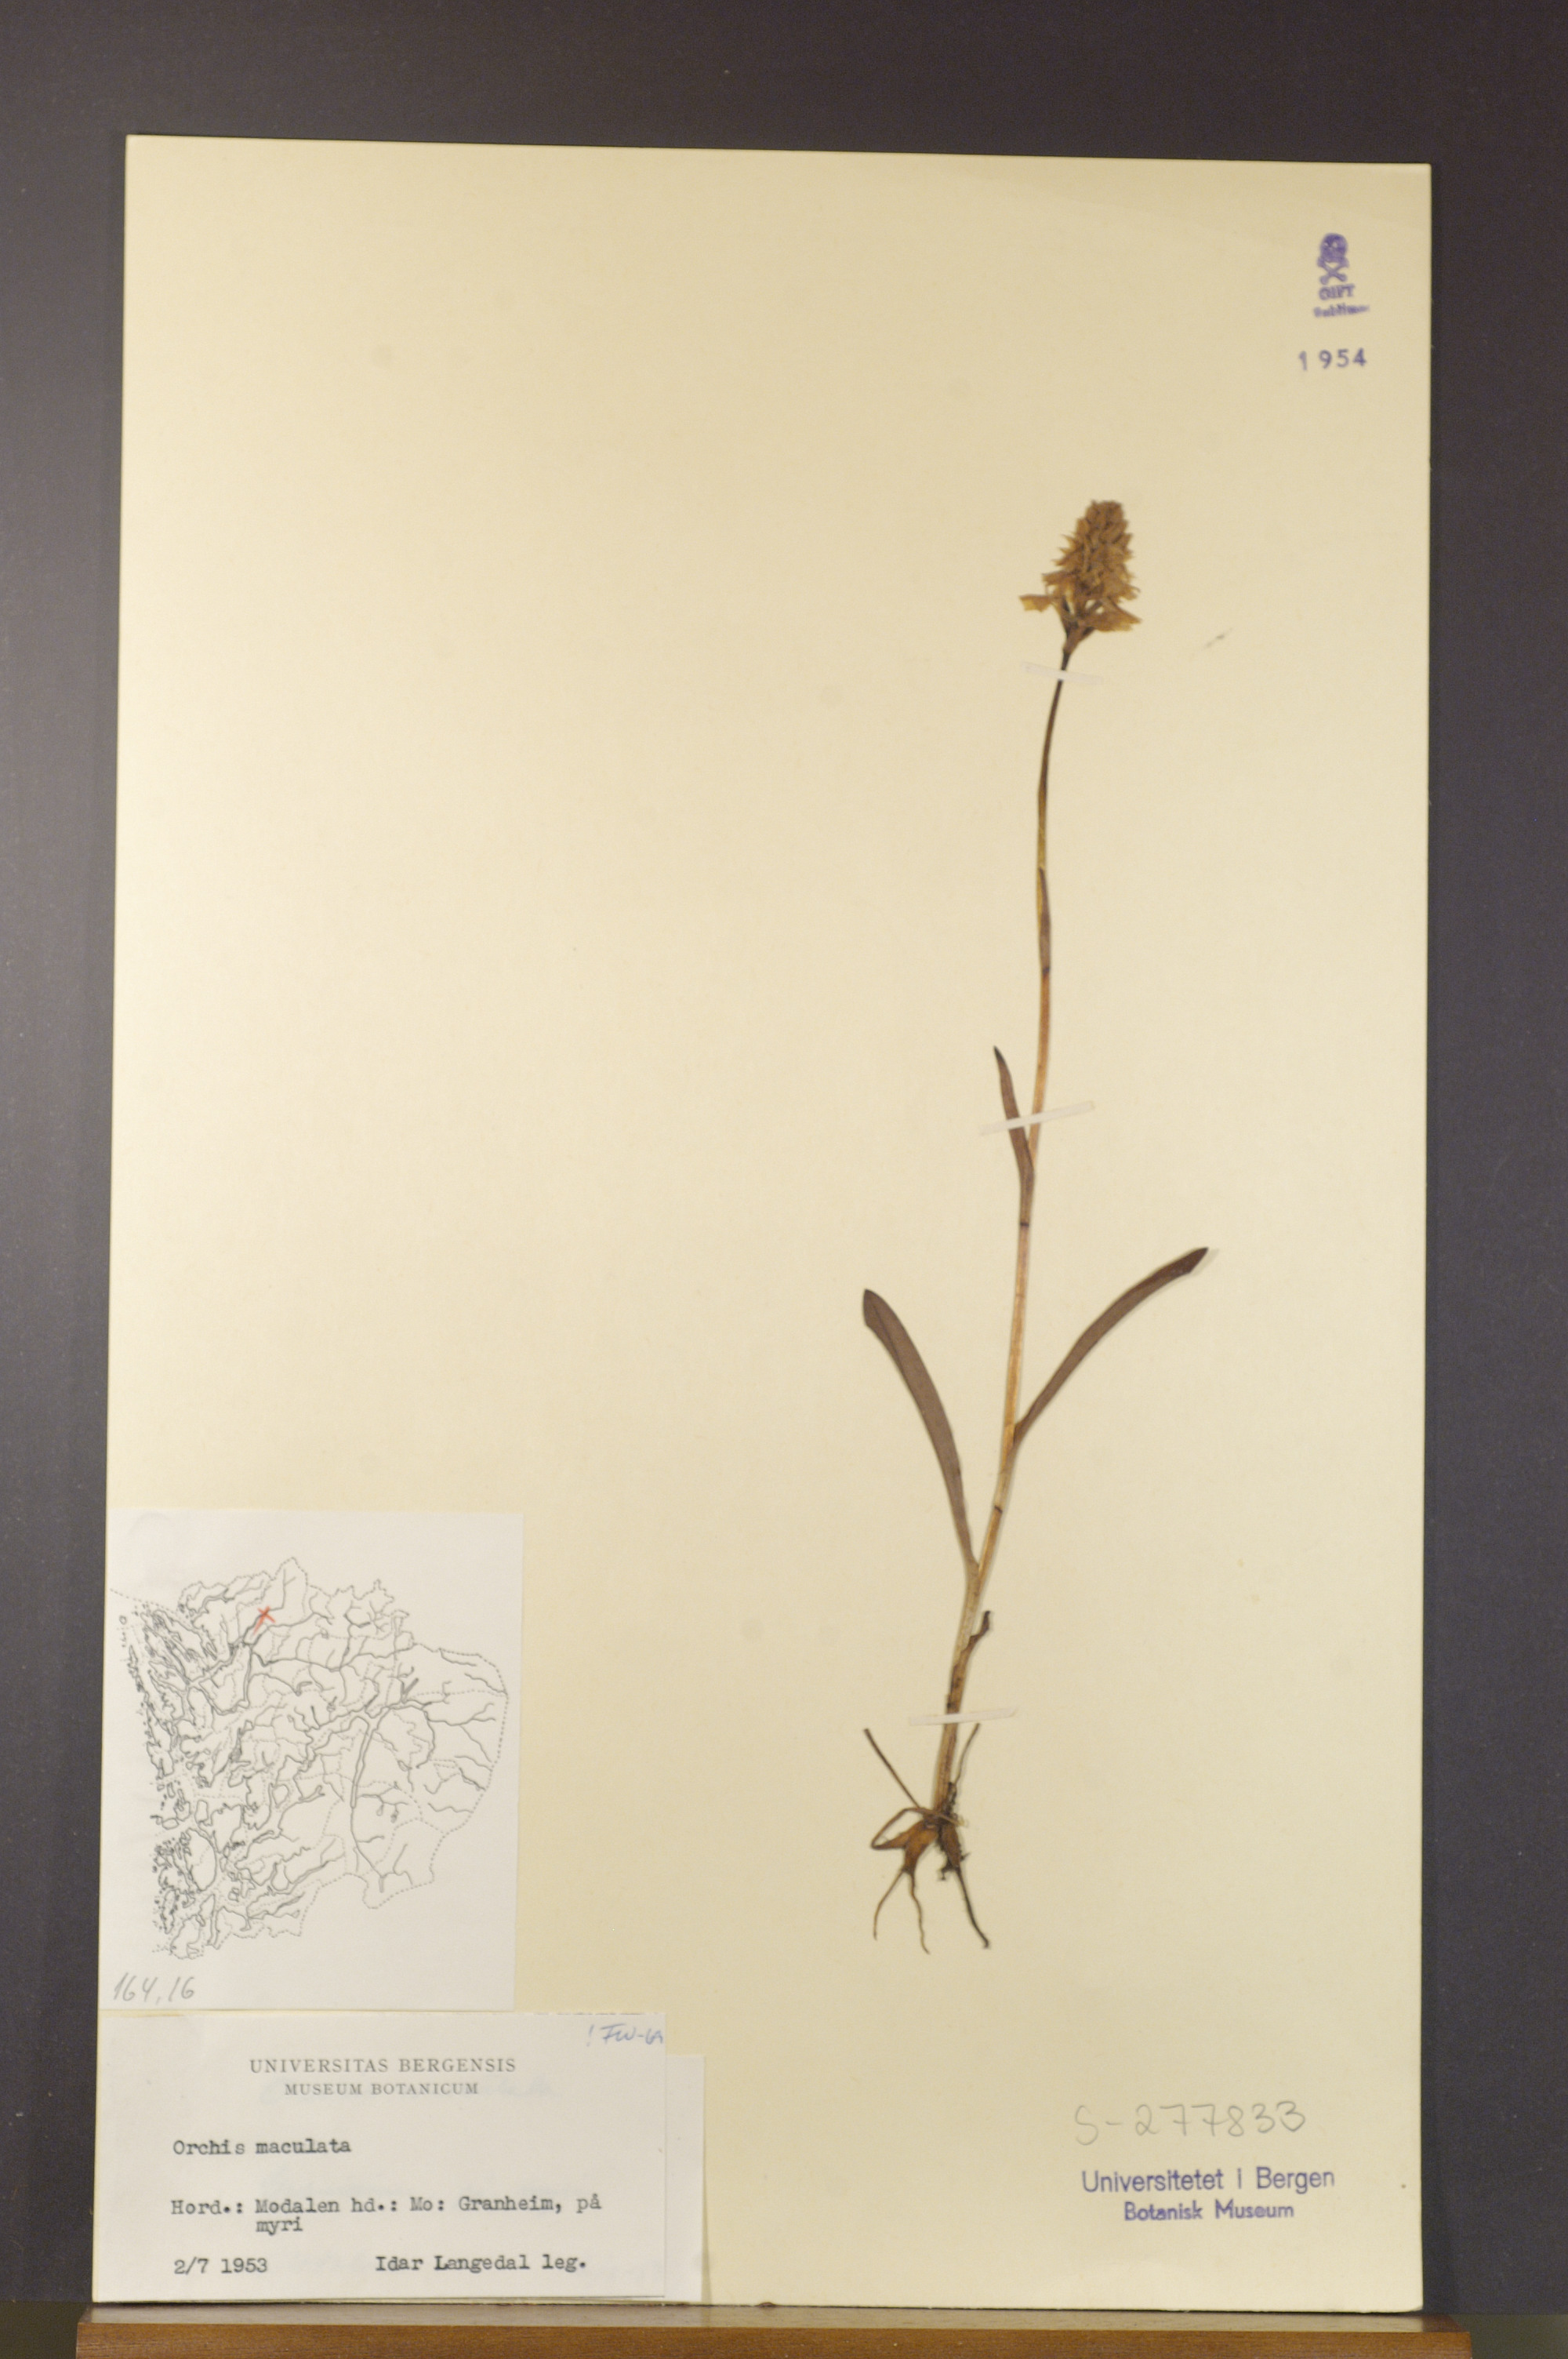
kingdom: Plantae
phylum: Tracheophyta
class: Liliopsida
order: Asparagales
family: Orchidaceae
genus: Dactylorhiza
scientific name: Dactylorhiza maculata
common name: Heath spotted-orchid
